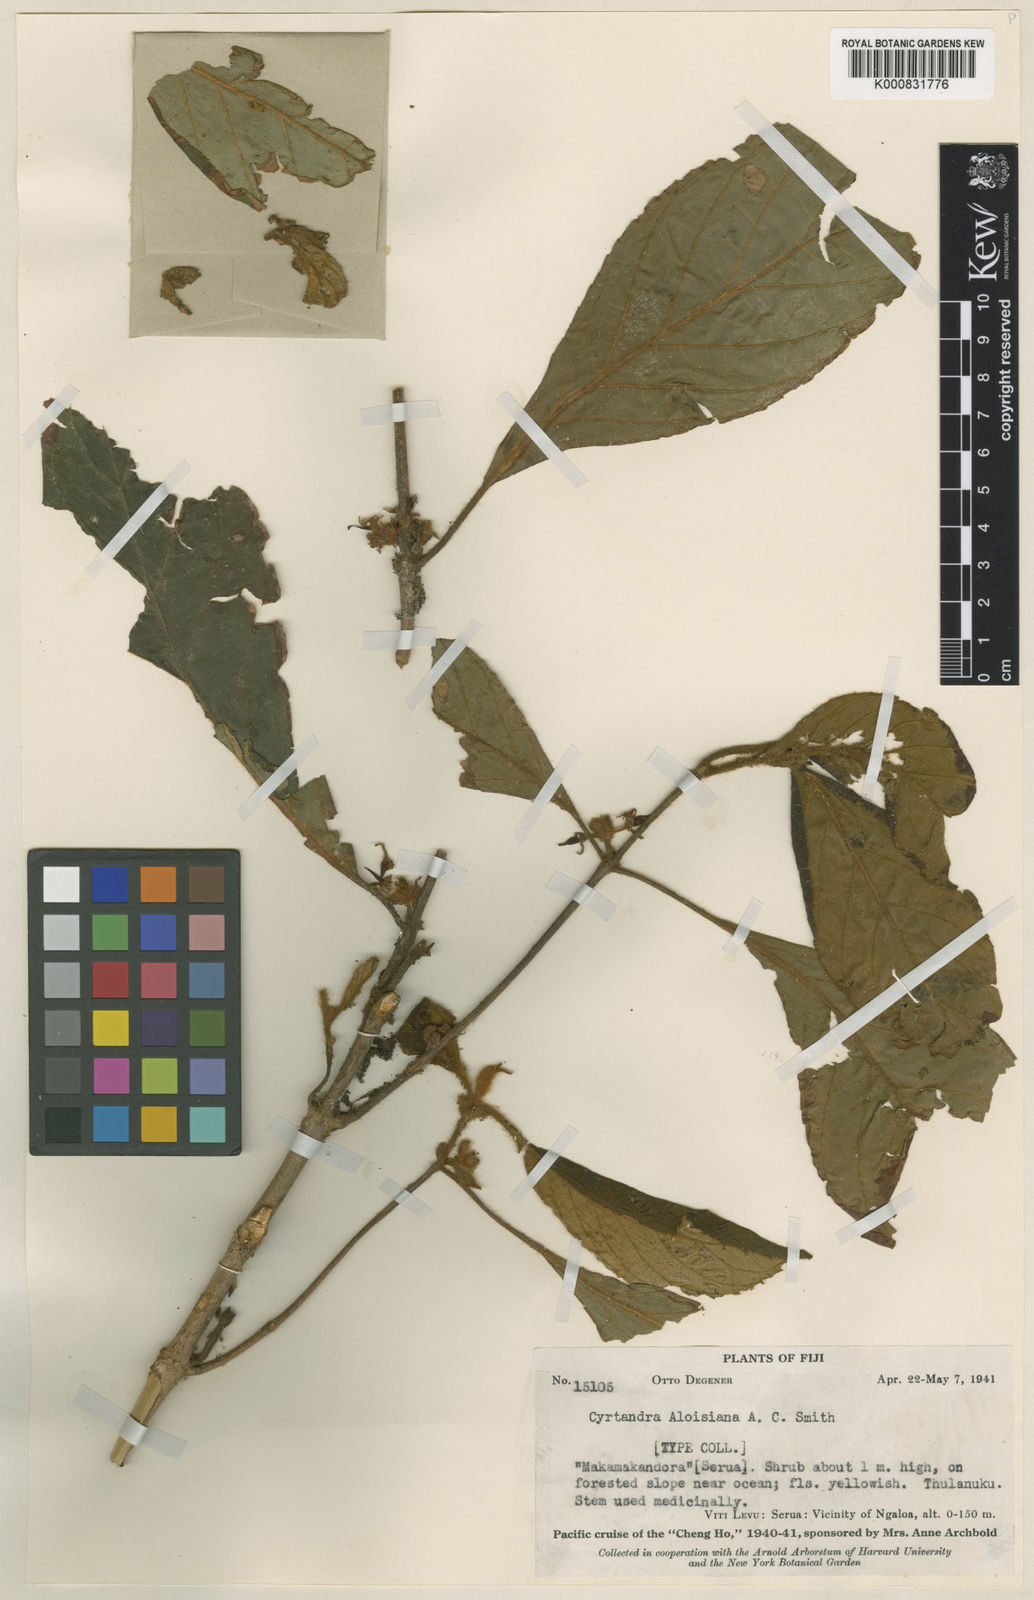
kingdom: Plantae
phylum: Tracheophyta
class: Magnoliopsida
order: Lamiales
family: Gesneriaceae
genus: Cyrtandra
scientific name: Cyrtandra aloisiana
